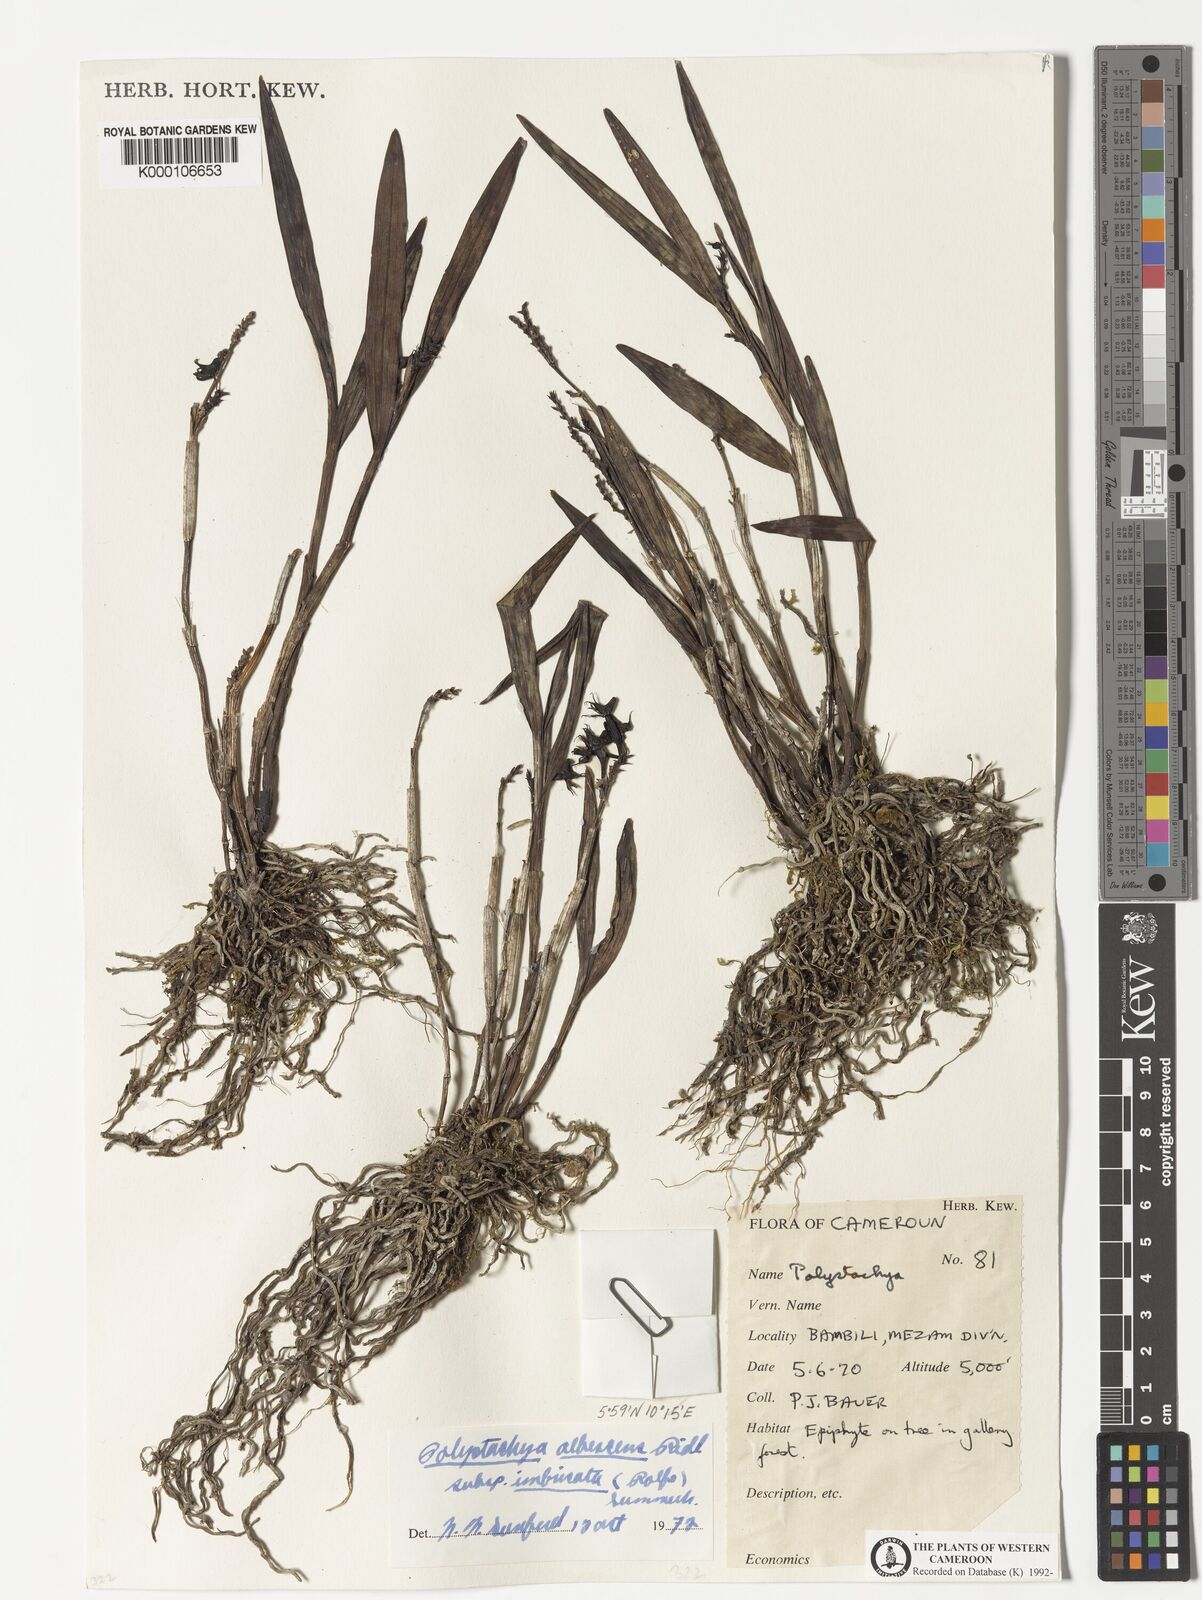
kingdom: Plantae
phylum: Tracheophyta
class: Liliopsida
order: Asparagales
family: Orchidaceae
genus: Polystachya
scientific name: Polystachya
